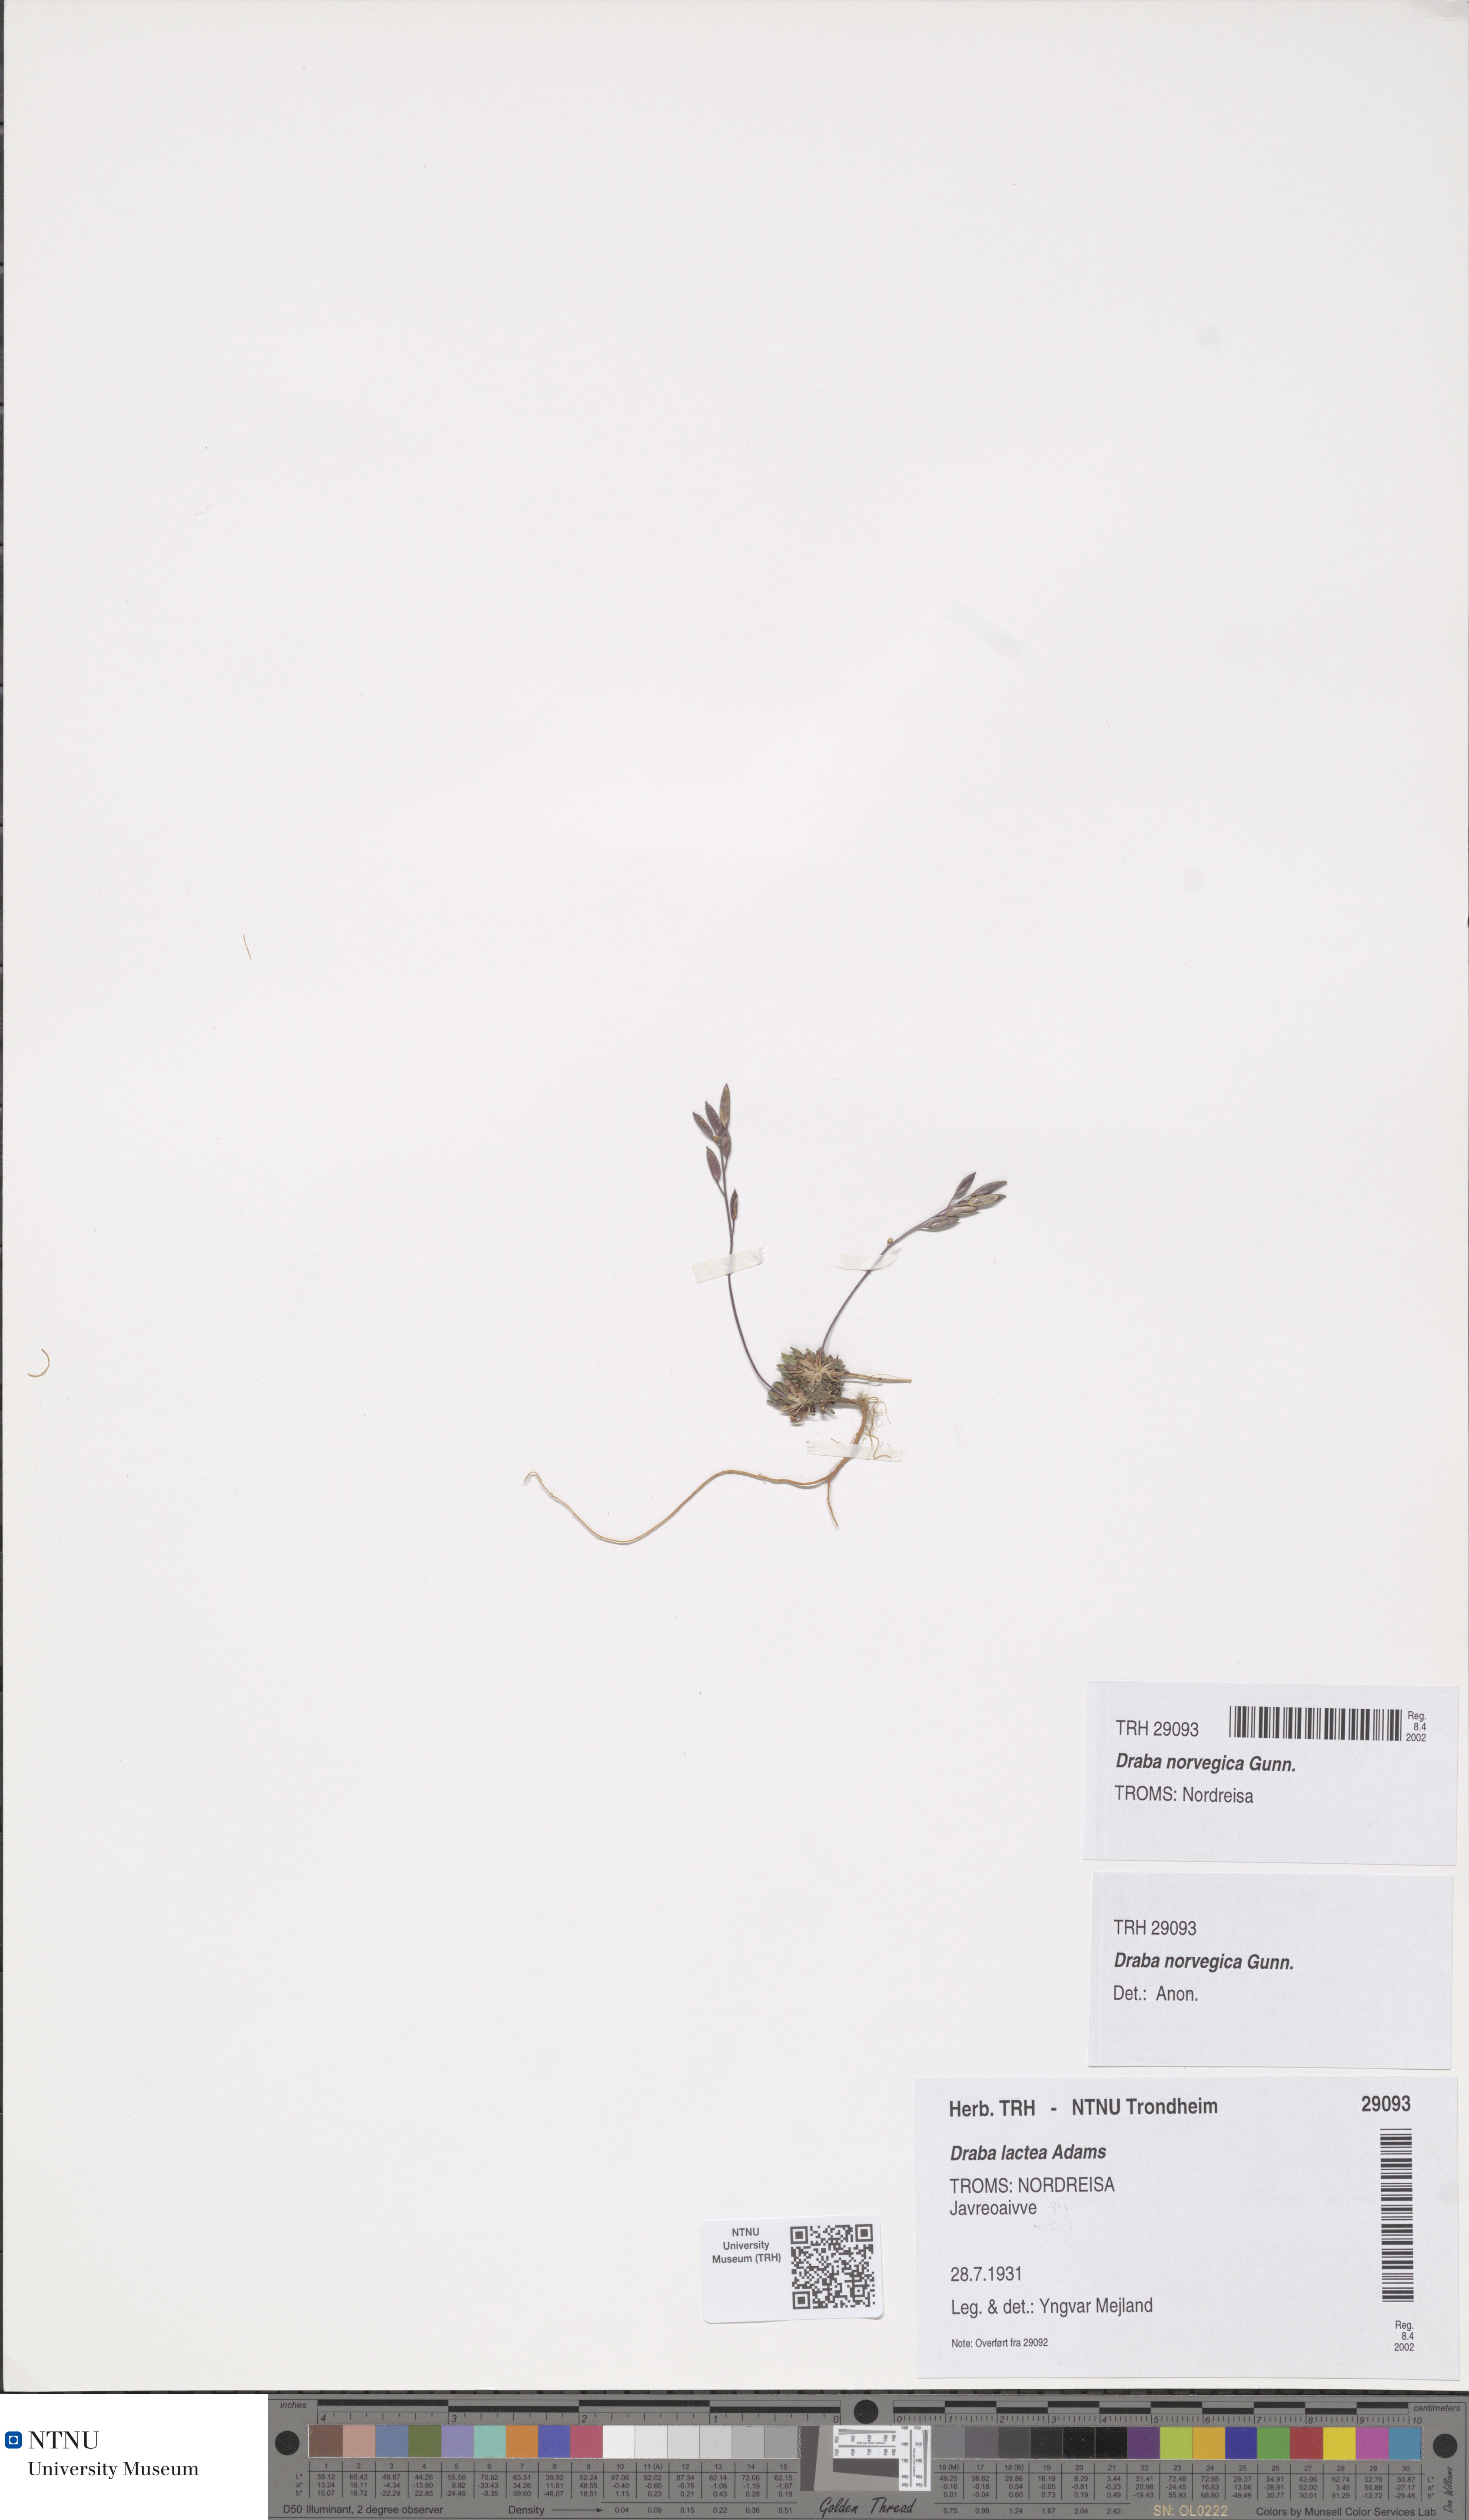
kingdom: Plantae
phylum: Tracheophyta
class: Magnoliopsida
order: Brassicales
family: Brassicaceae
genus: Draba
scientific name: Draba norvegica
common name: Rock whitlowgrass
